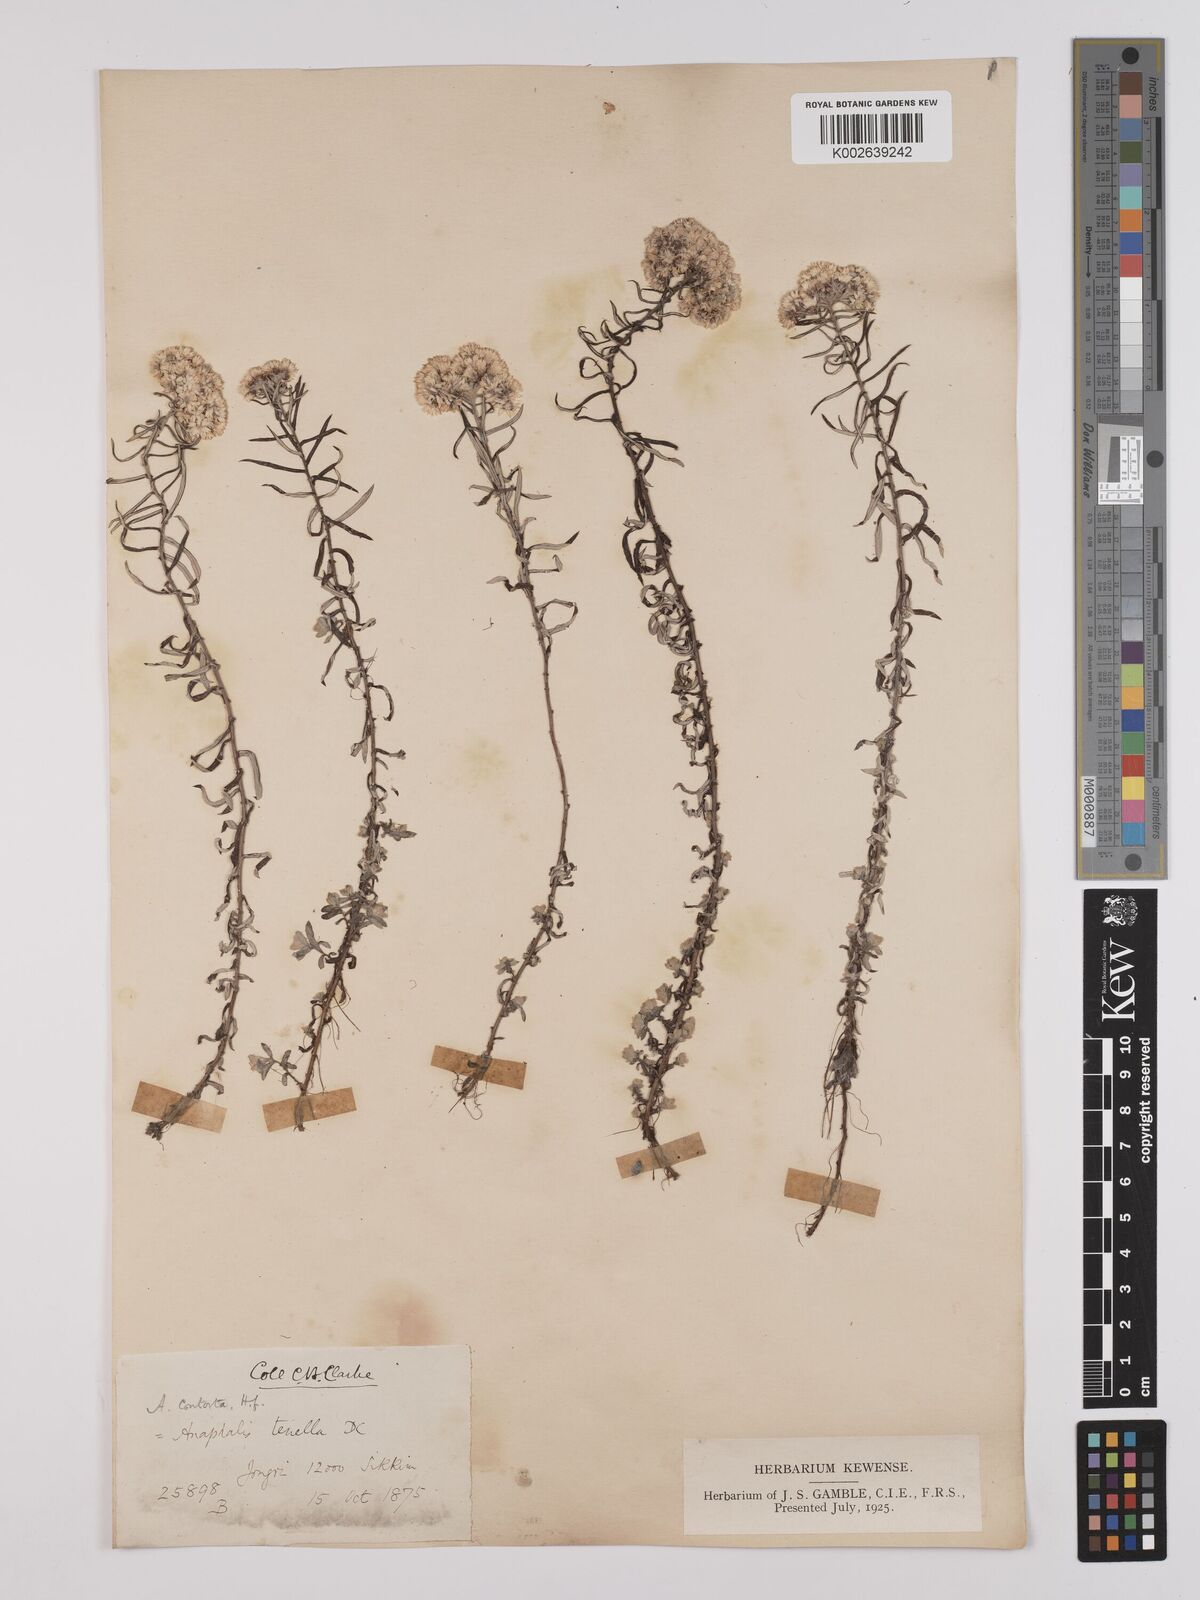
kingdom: Plantae
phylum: Tracheophyta
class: Magnoliopsida
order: Asterales
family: Asteraceae
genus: Anaphalis
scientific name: Anaphalis contorta
